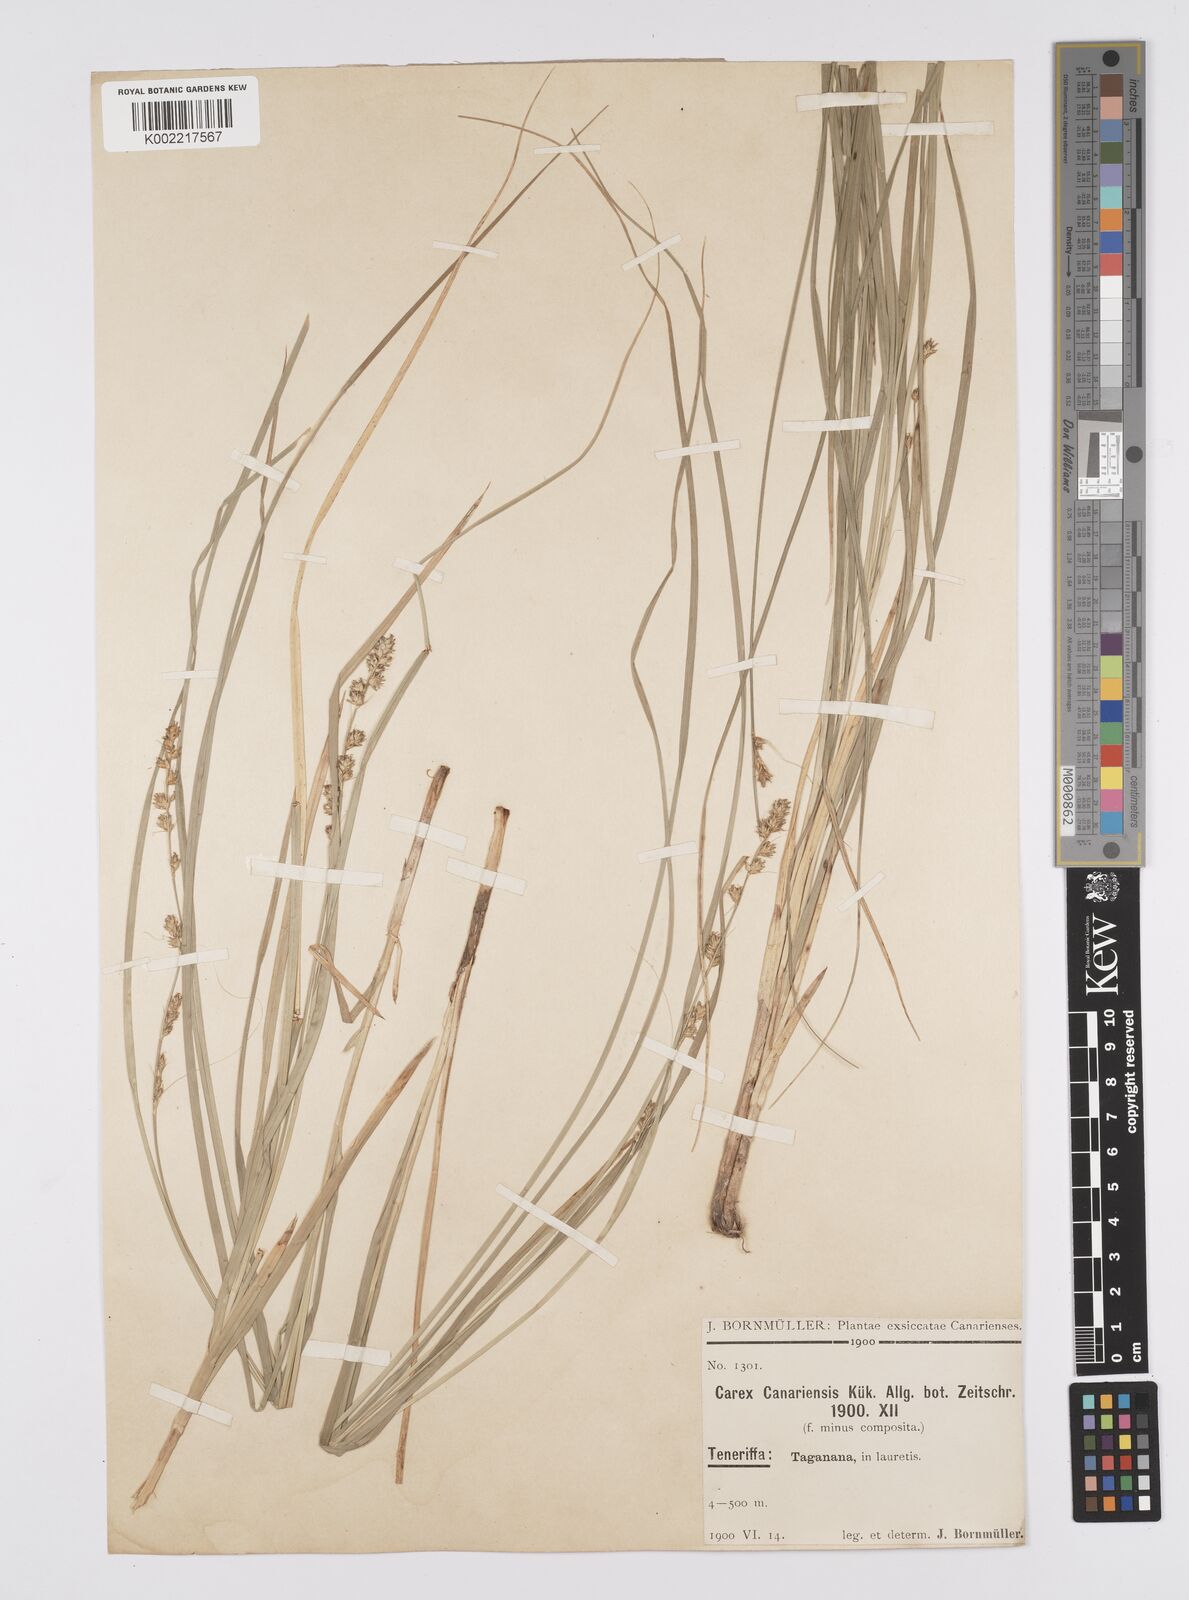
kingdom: Plantae
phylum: Tracheophyta
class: Liliopsida
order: Poales
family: Cyperaceae
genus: Carex
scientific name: Carex canariensis
